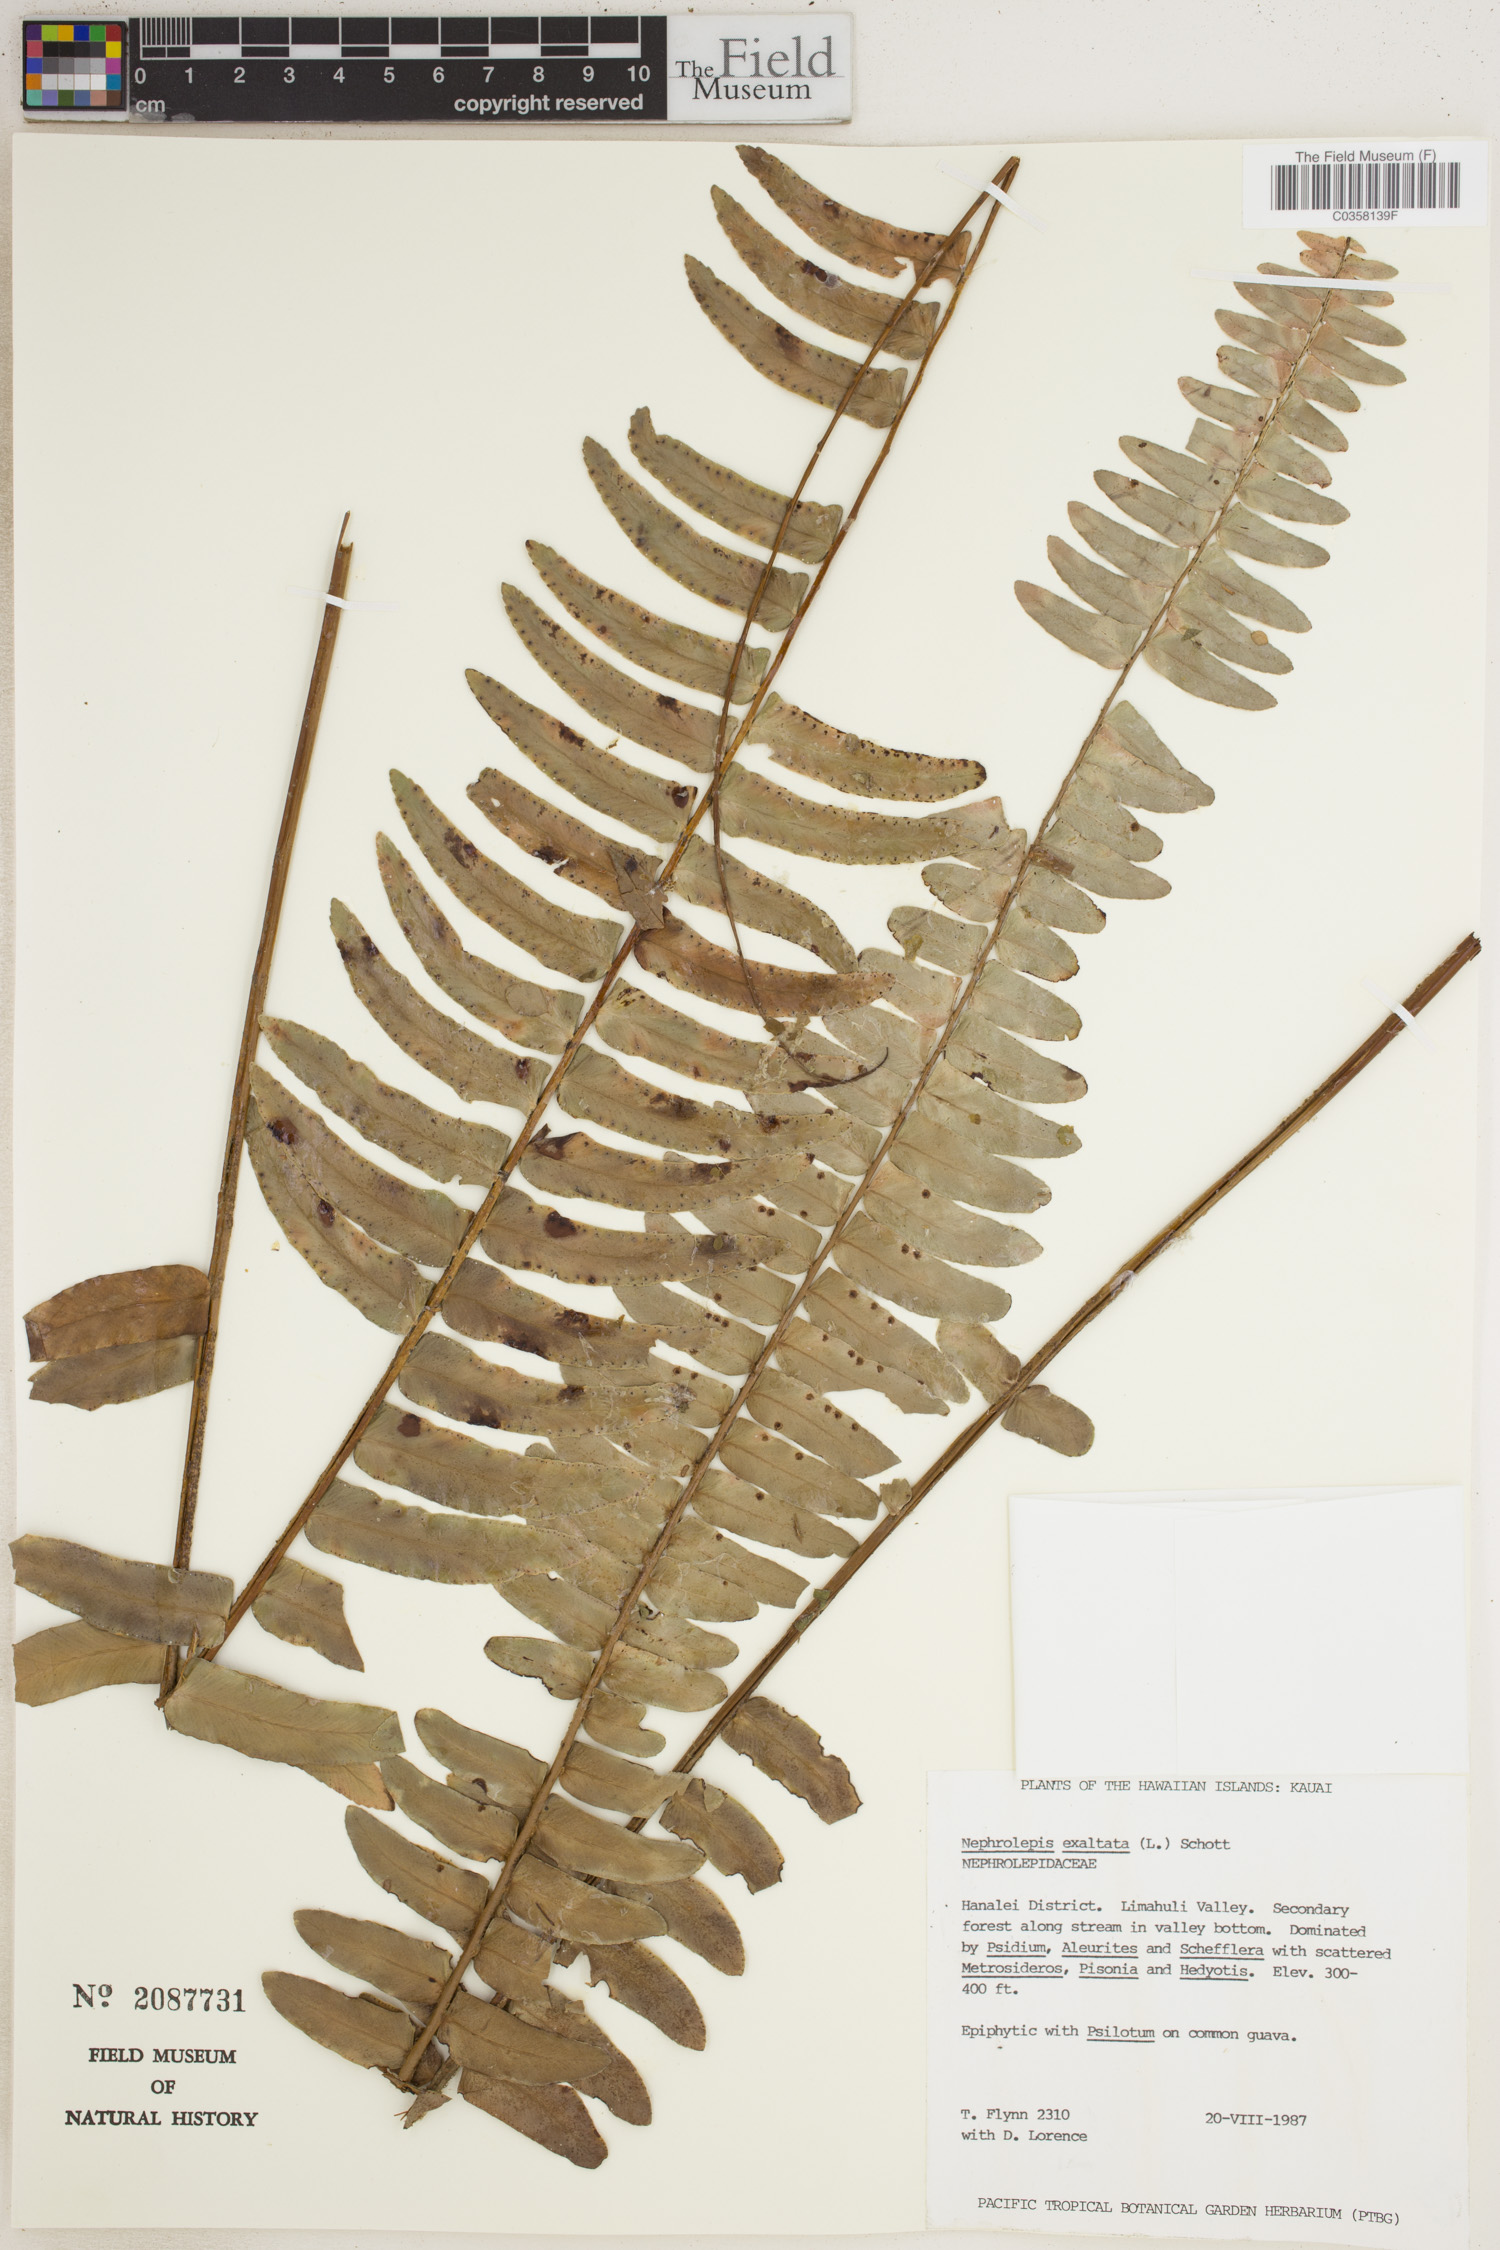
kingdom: Plantae
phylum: Tracheophyta
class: Polypodiopsida
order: Polypodiales
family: Nephrolepidaceae
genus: Nephrolepis
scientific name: Nephrolepis cordifolia
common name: Narrow swordfern
